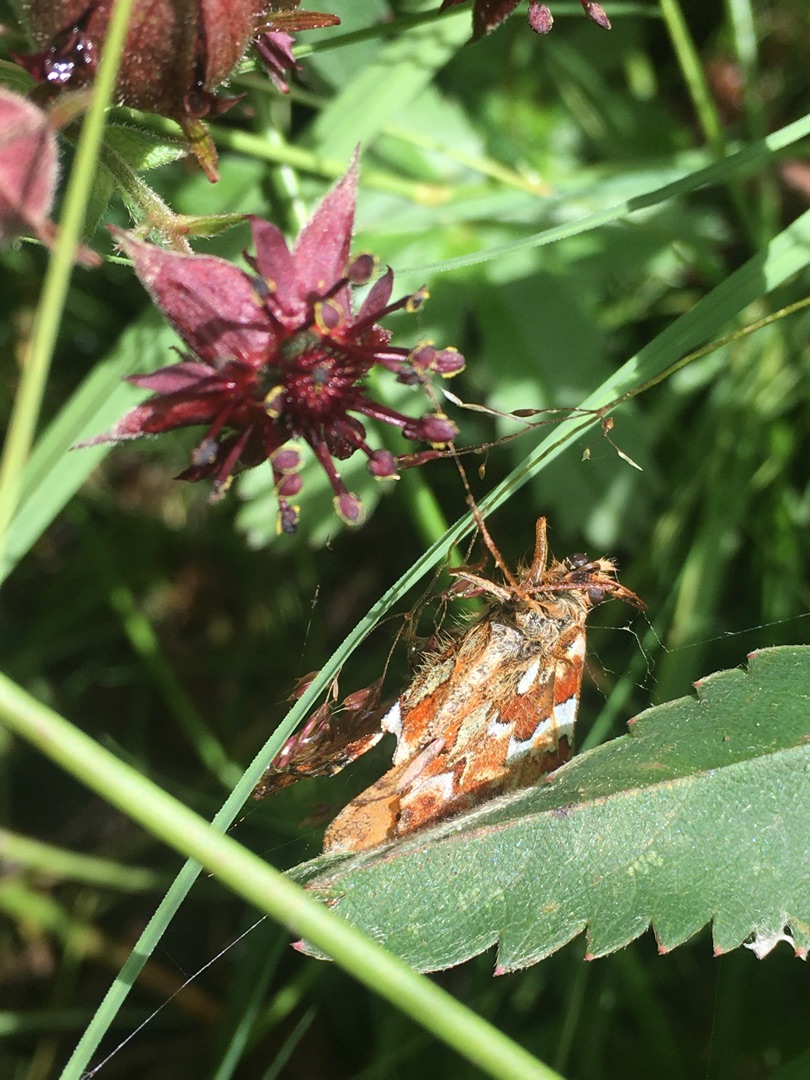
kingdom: Animalia
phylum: Arthropoda
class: Insecta
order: Lepidoptera
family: Nymphalidae
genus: Boloria
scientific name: Boloria aquilonaris
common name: Moseperlemorsommerfugl
